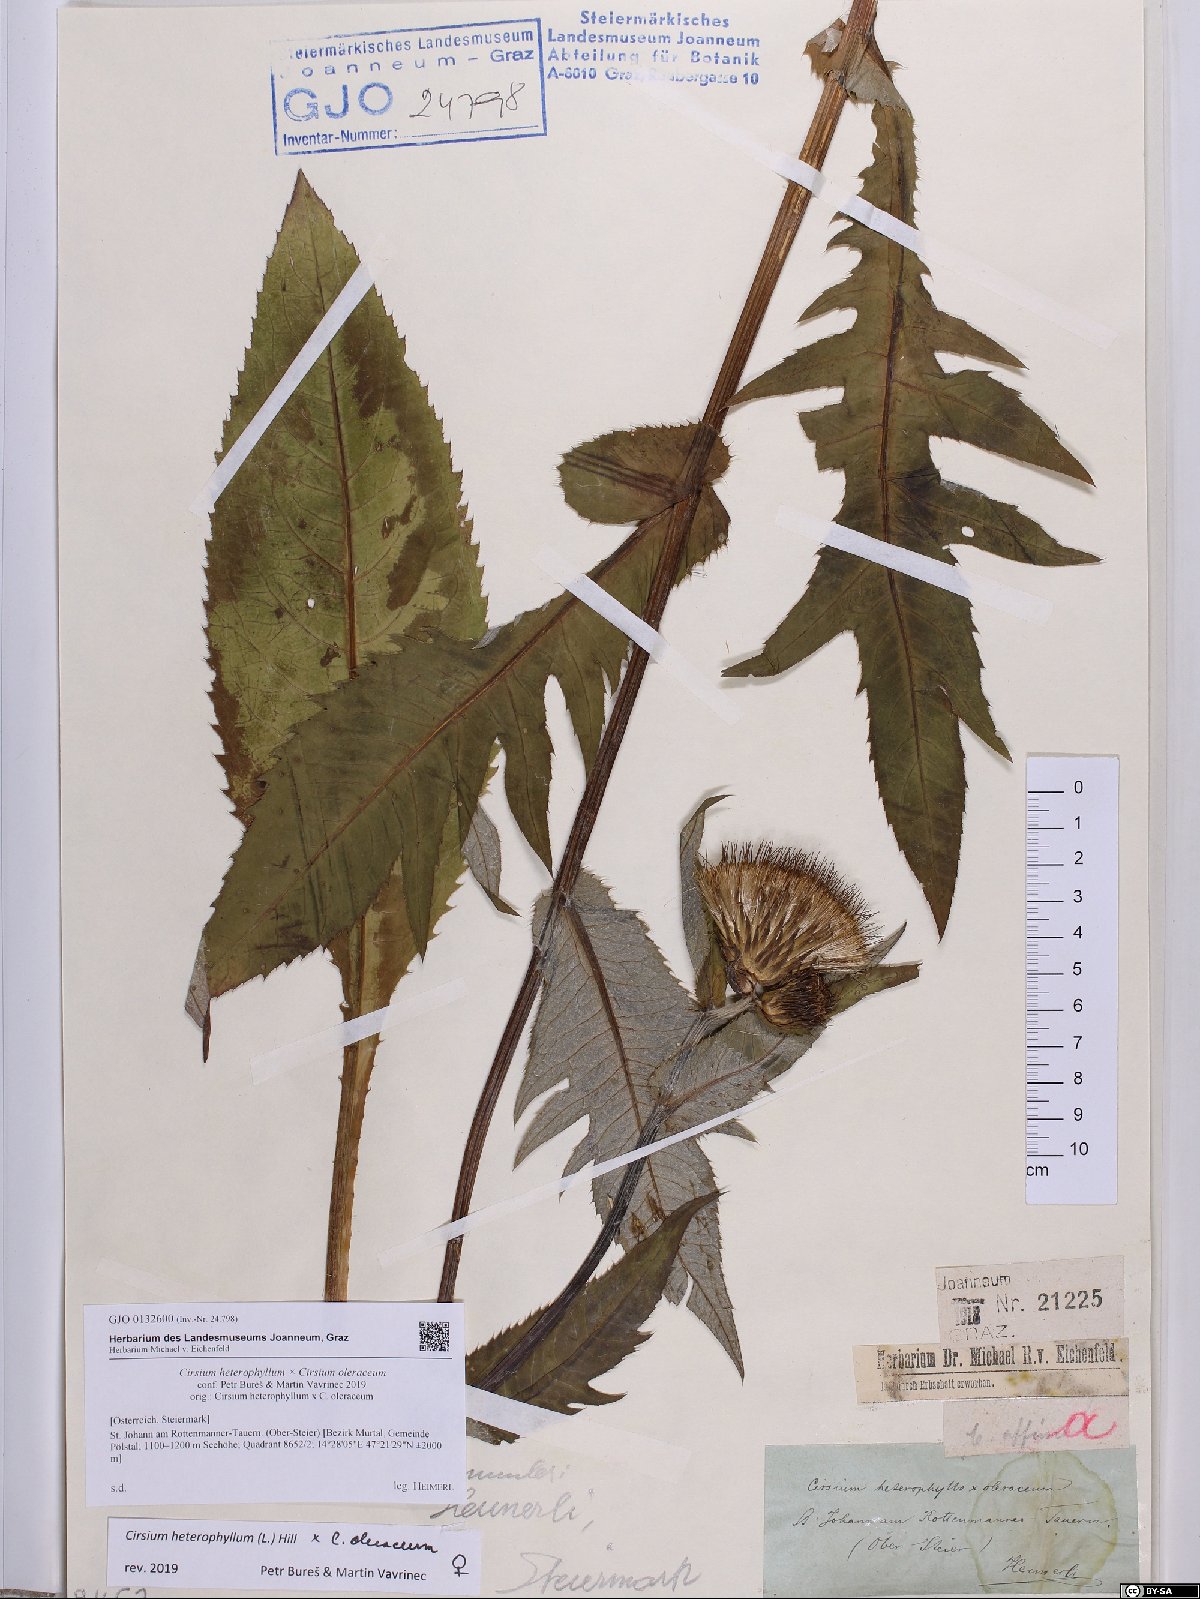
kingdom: Plantae
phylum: Tracheophyta
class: Magnoliopsida
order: Asterales
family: Asteraceae
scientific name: Asteraceae
